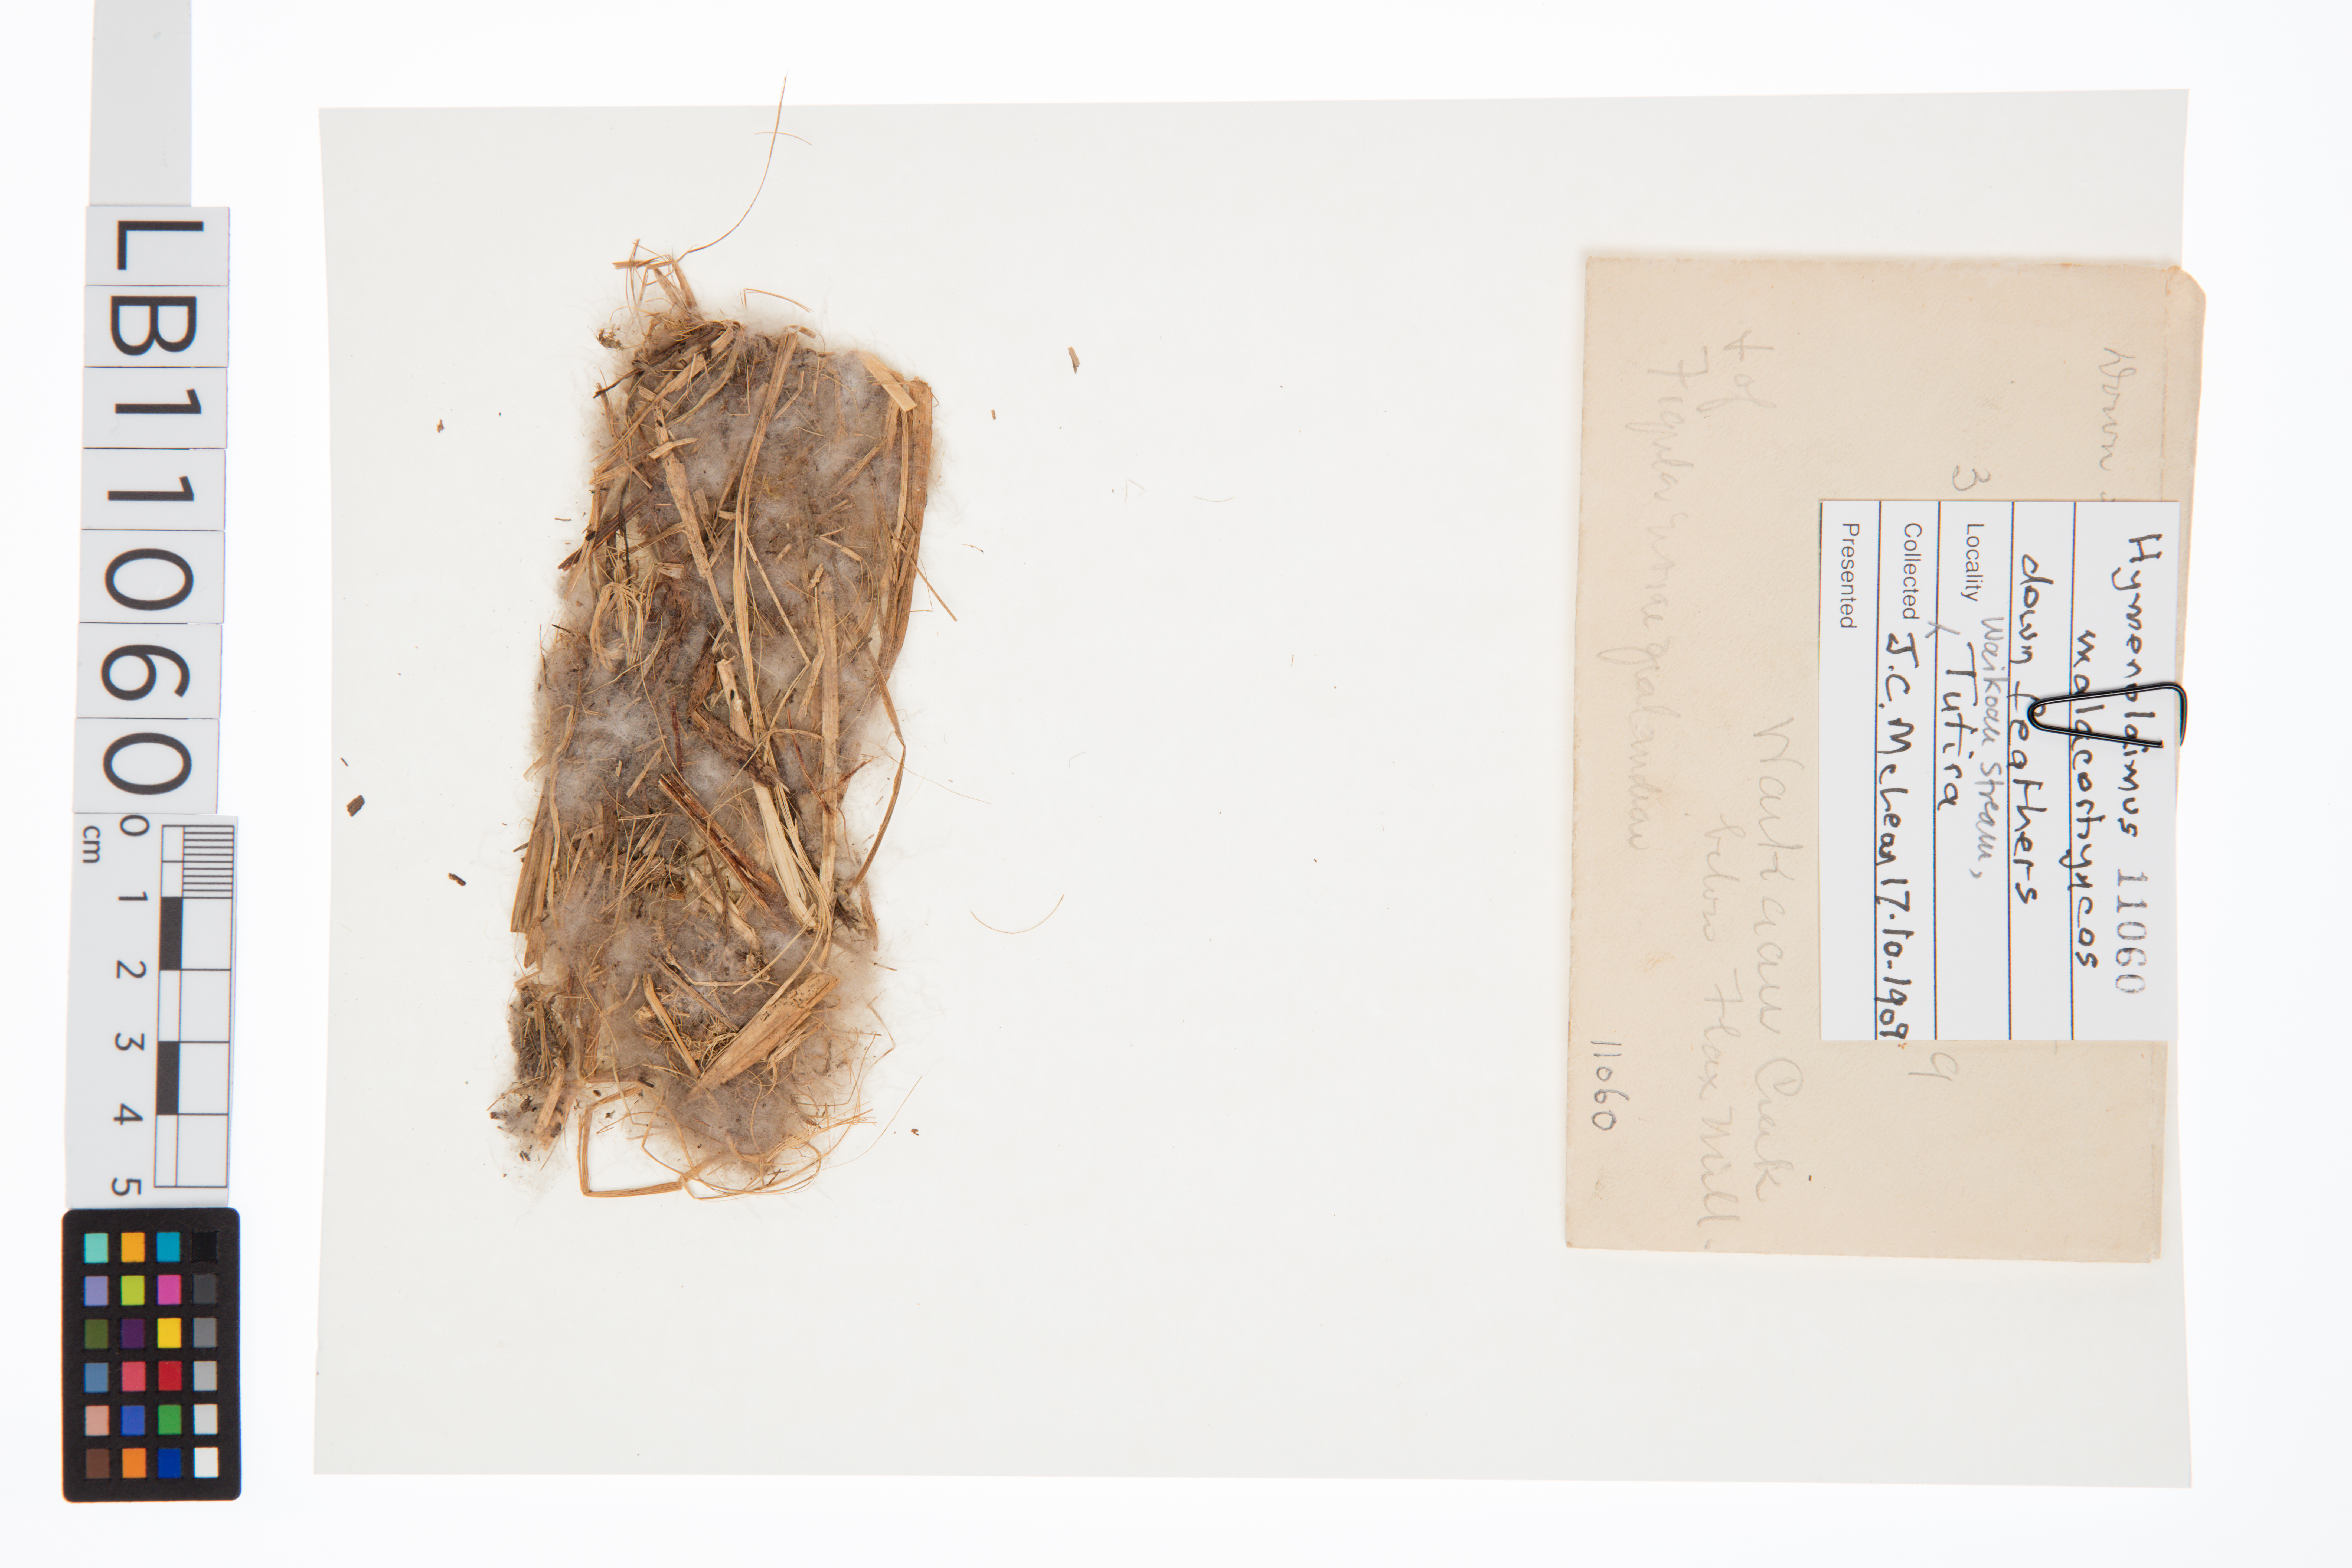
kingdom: Animalia
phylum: Chordata
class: Aves
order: Anseriformes
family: Anatidae
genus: Hymenolaimus
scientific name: Hymenolaimus malacorhynchos
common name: Blue duck
